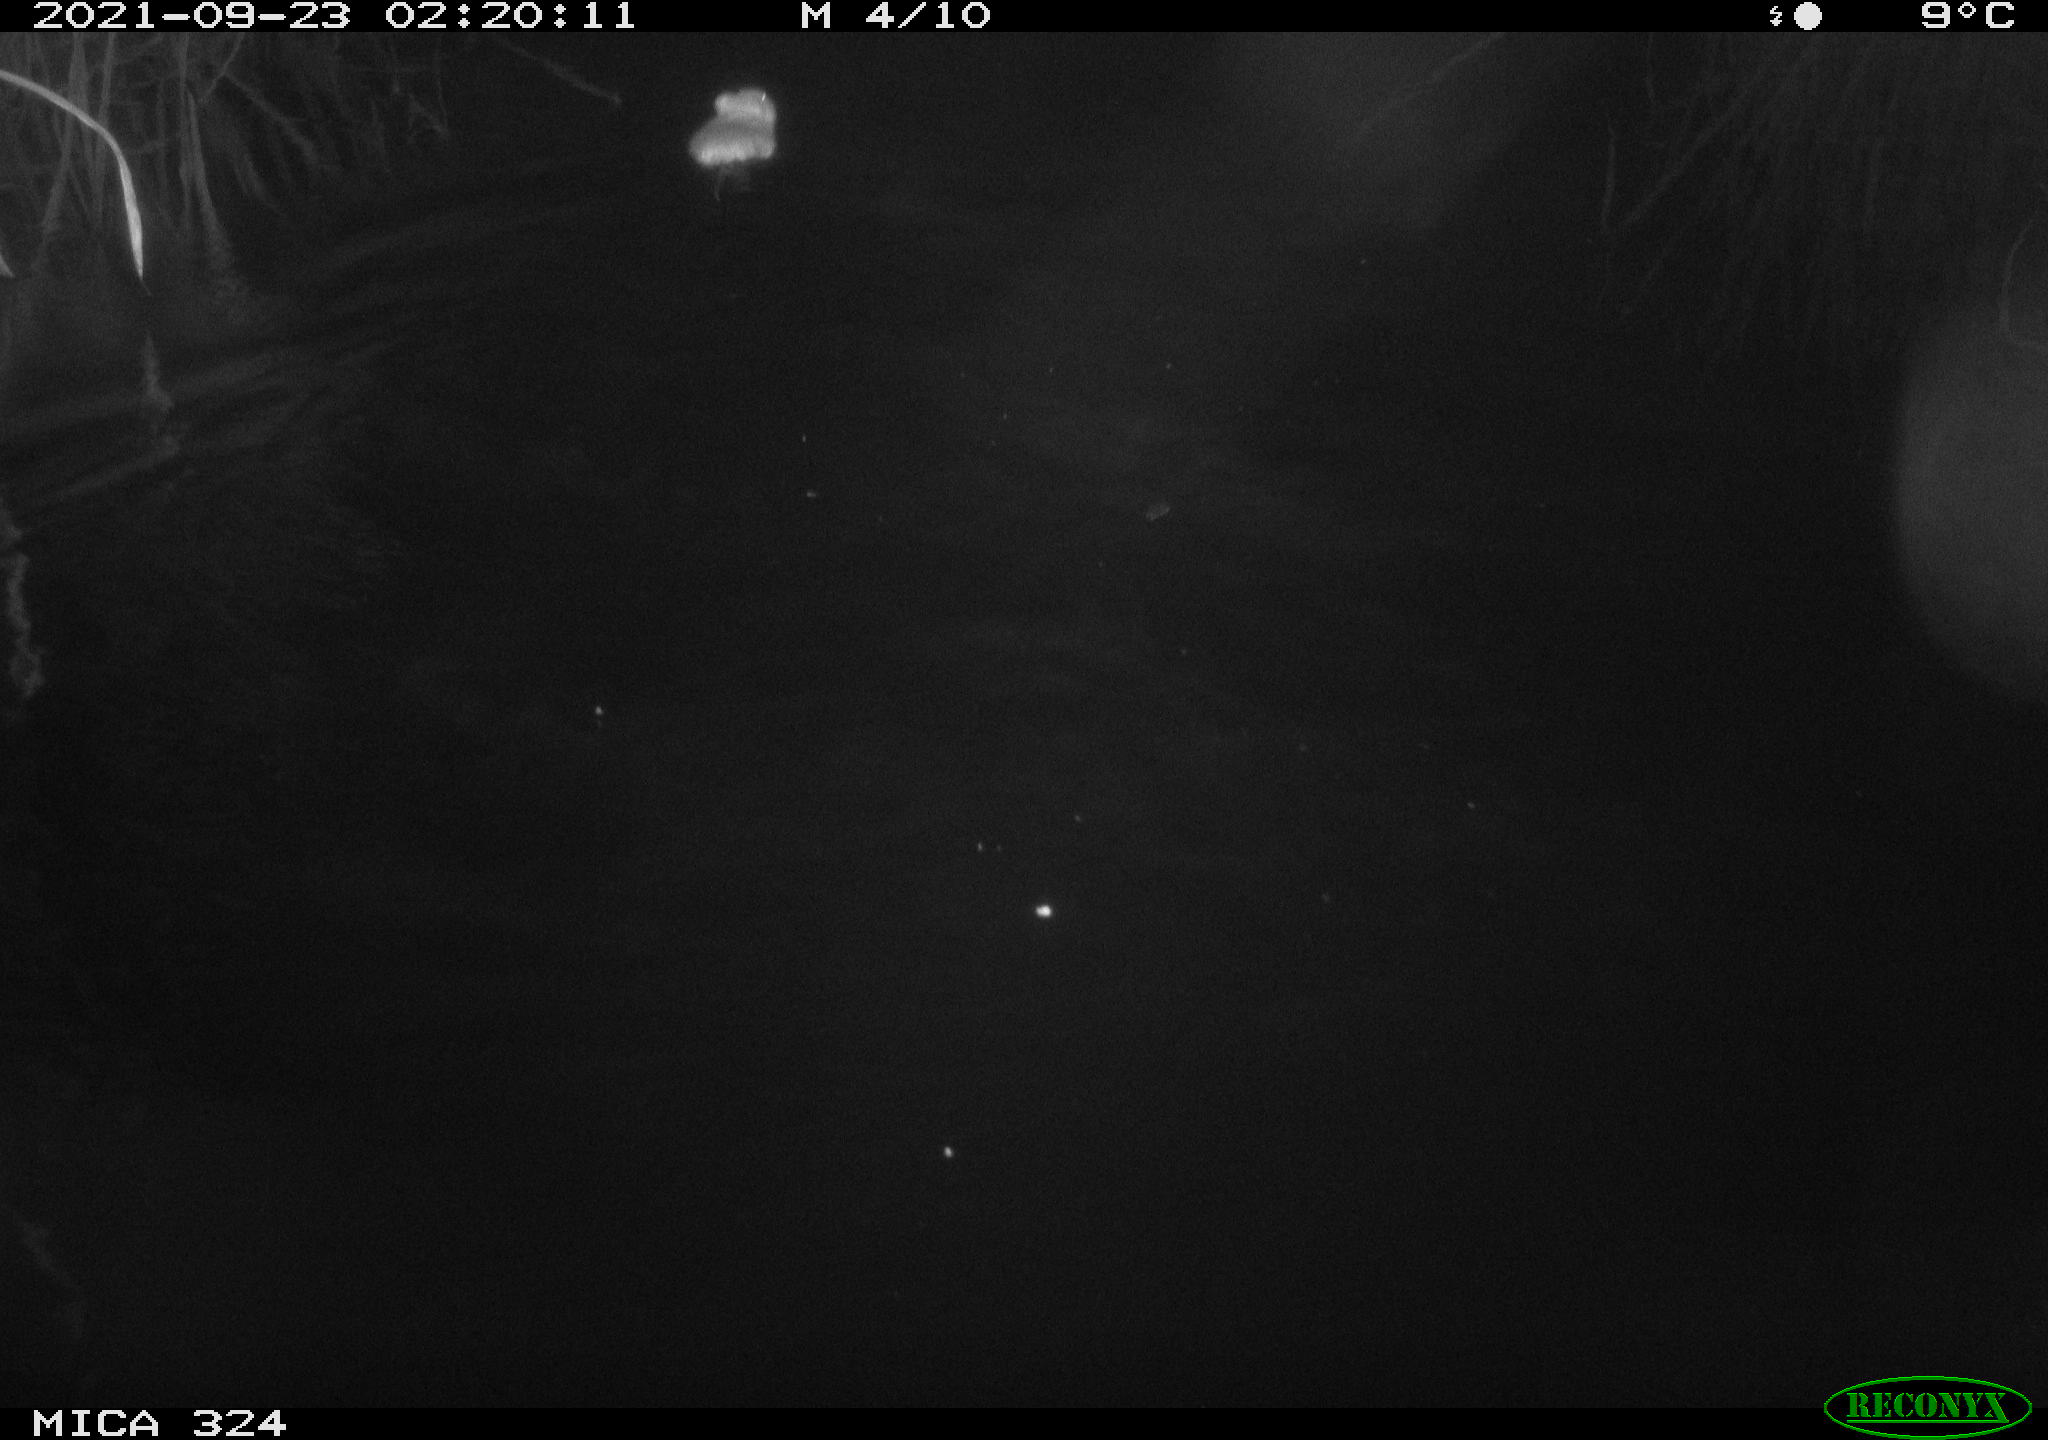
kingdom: Animalia
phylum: Chordata
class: Mammalia
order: Rodentia
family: Cricetidae
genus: Ondatra
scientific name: Ondatra zibethicus
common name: Muskrat
